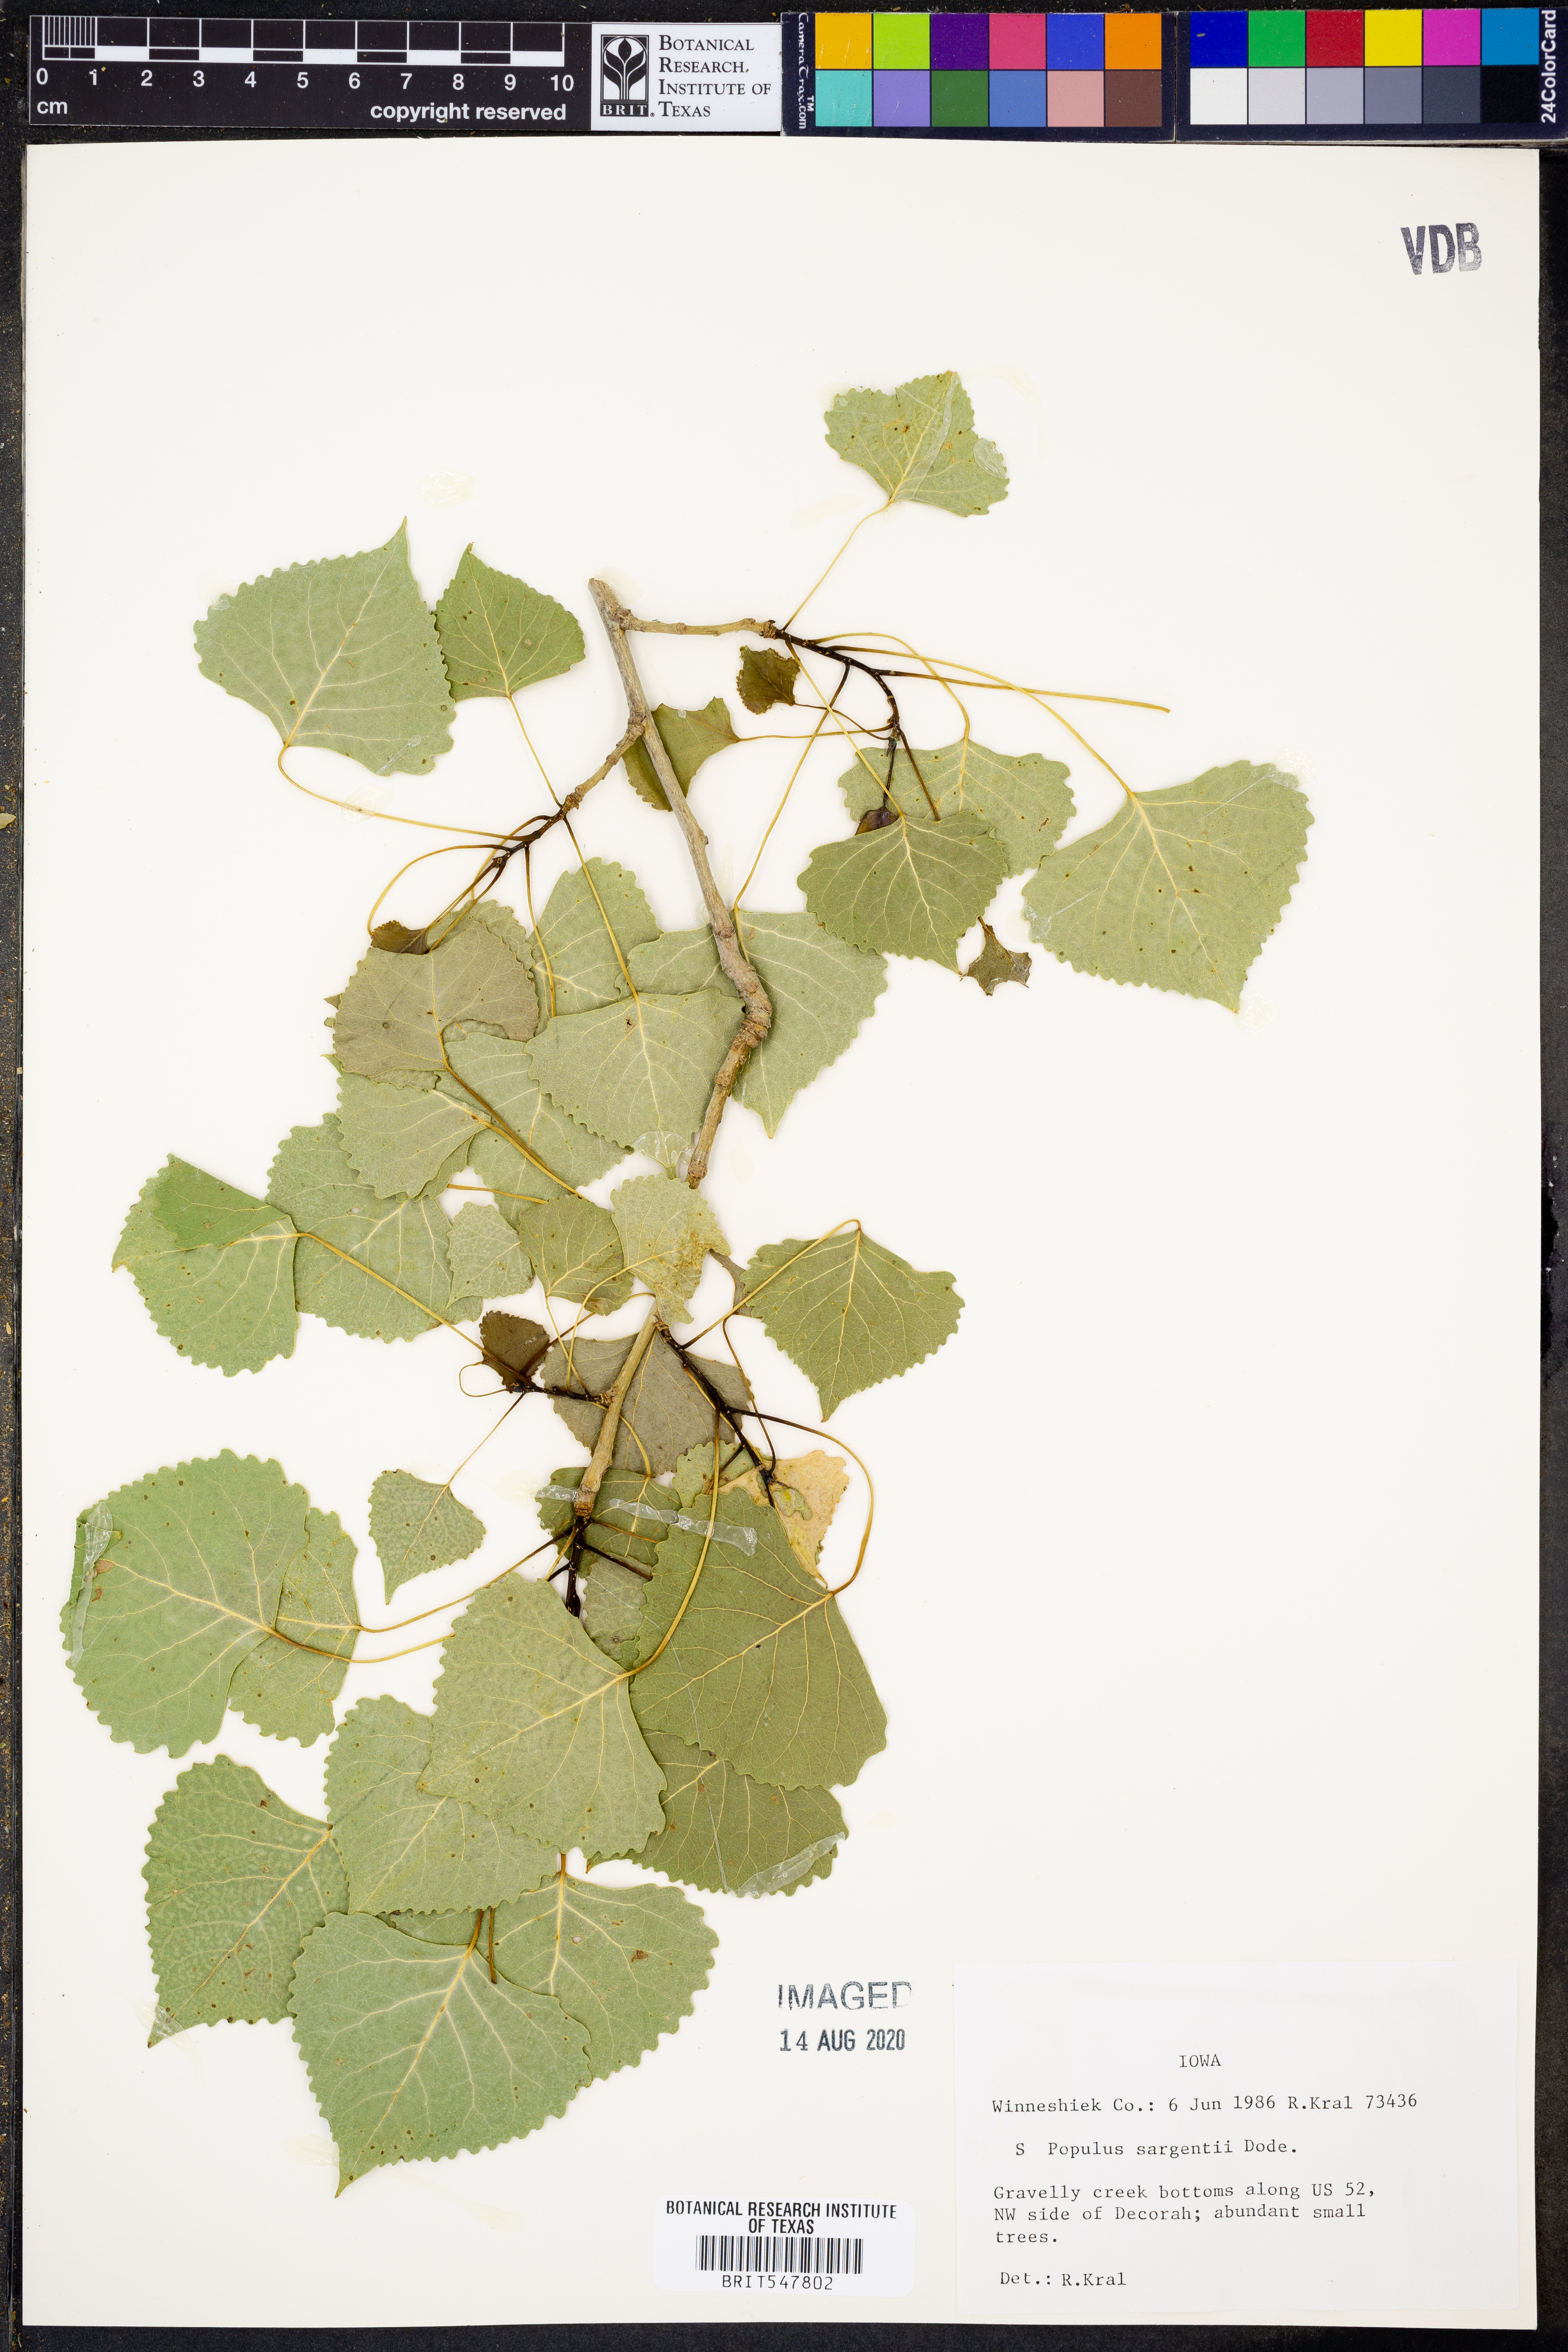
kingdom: Plantae
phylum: Tracheophyta
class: Magnoliopsida
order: Malpighiales
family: Salicaceae
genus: Populus
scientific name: Populus deltoides
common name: Eastern cottonwood
